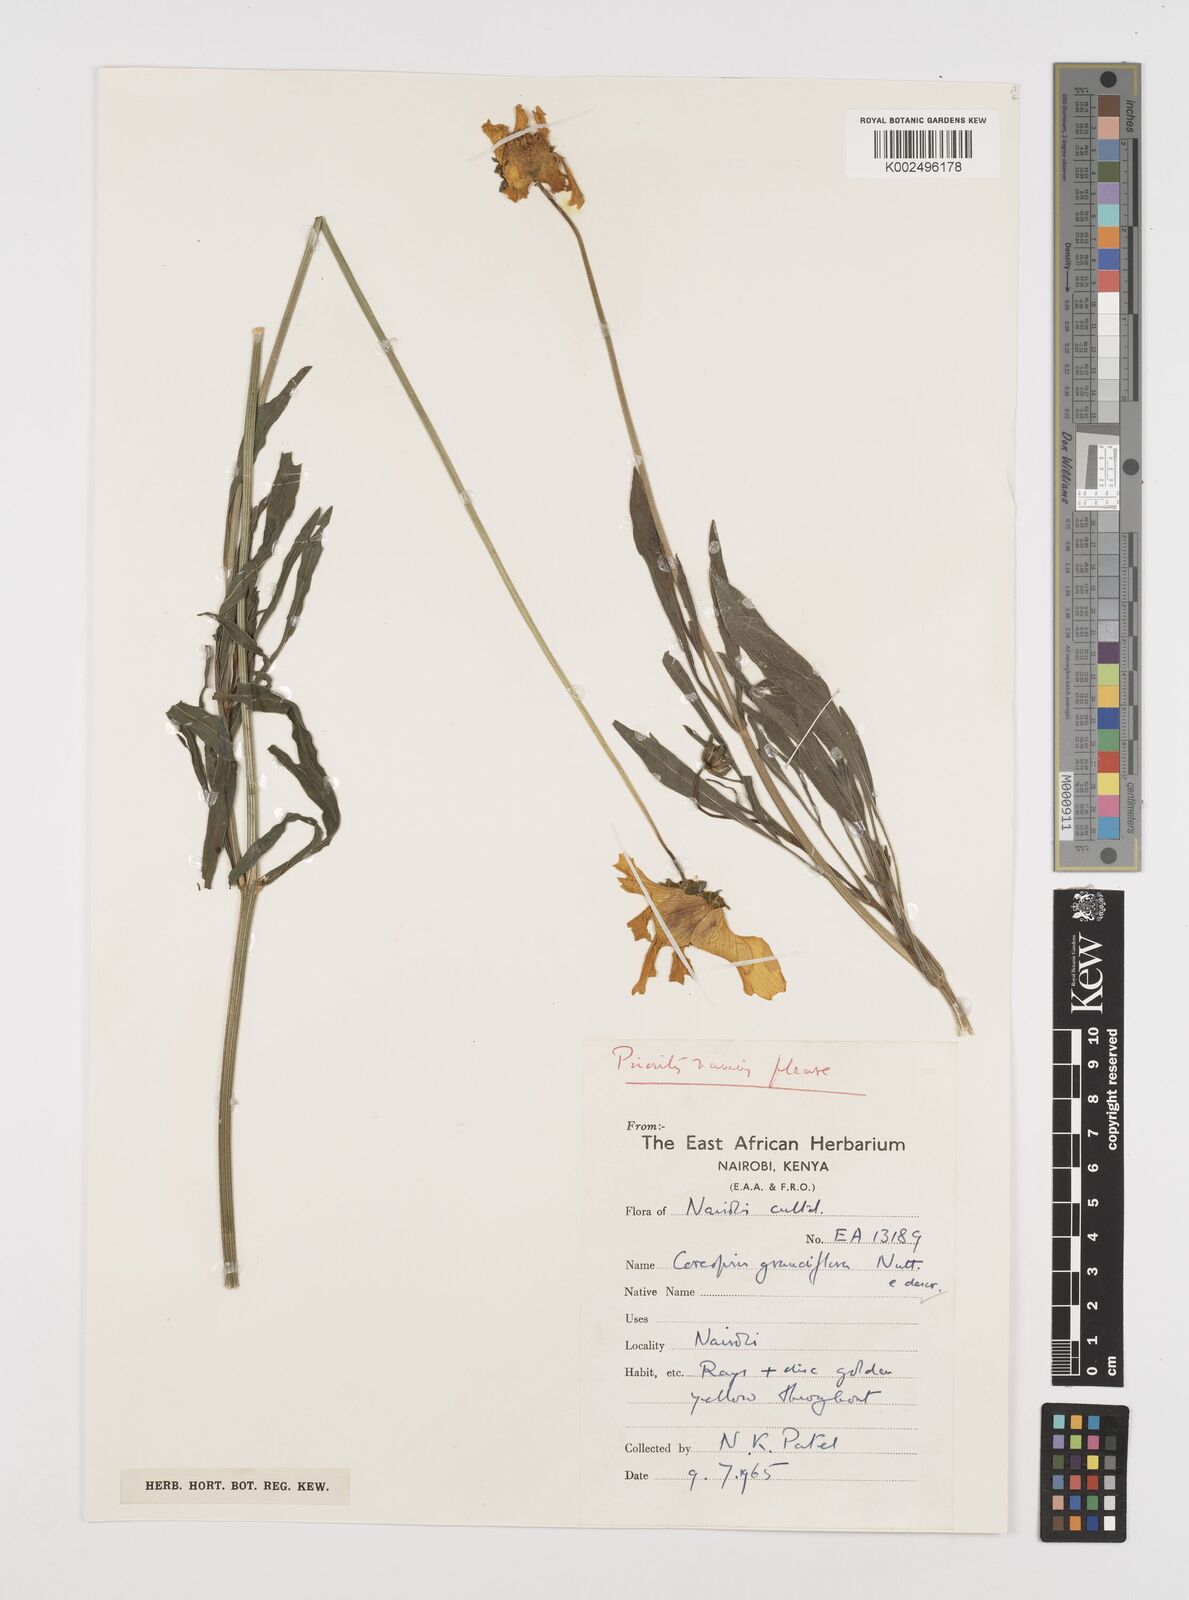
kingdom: Plantae
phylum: Tracheophyta
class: Magnoliopsida
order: Asterales
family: Asteraceae
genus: Coreopsis
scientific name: Coreopsis grandiflora
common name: Large-flowered tickseed
